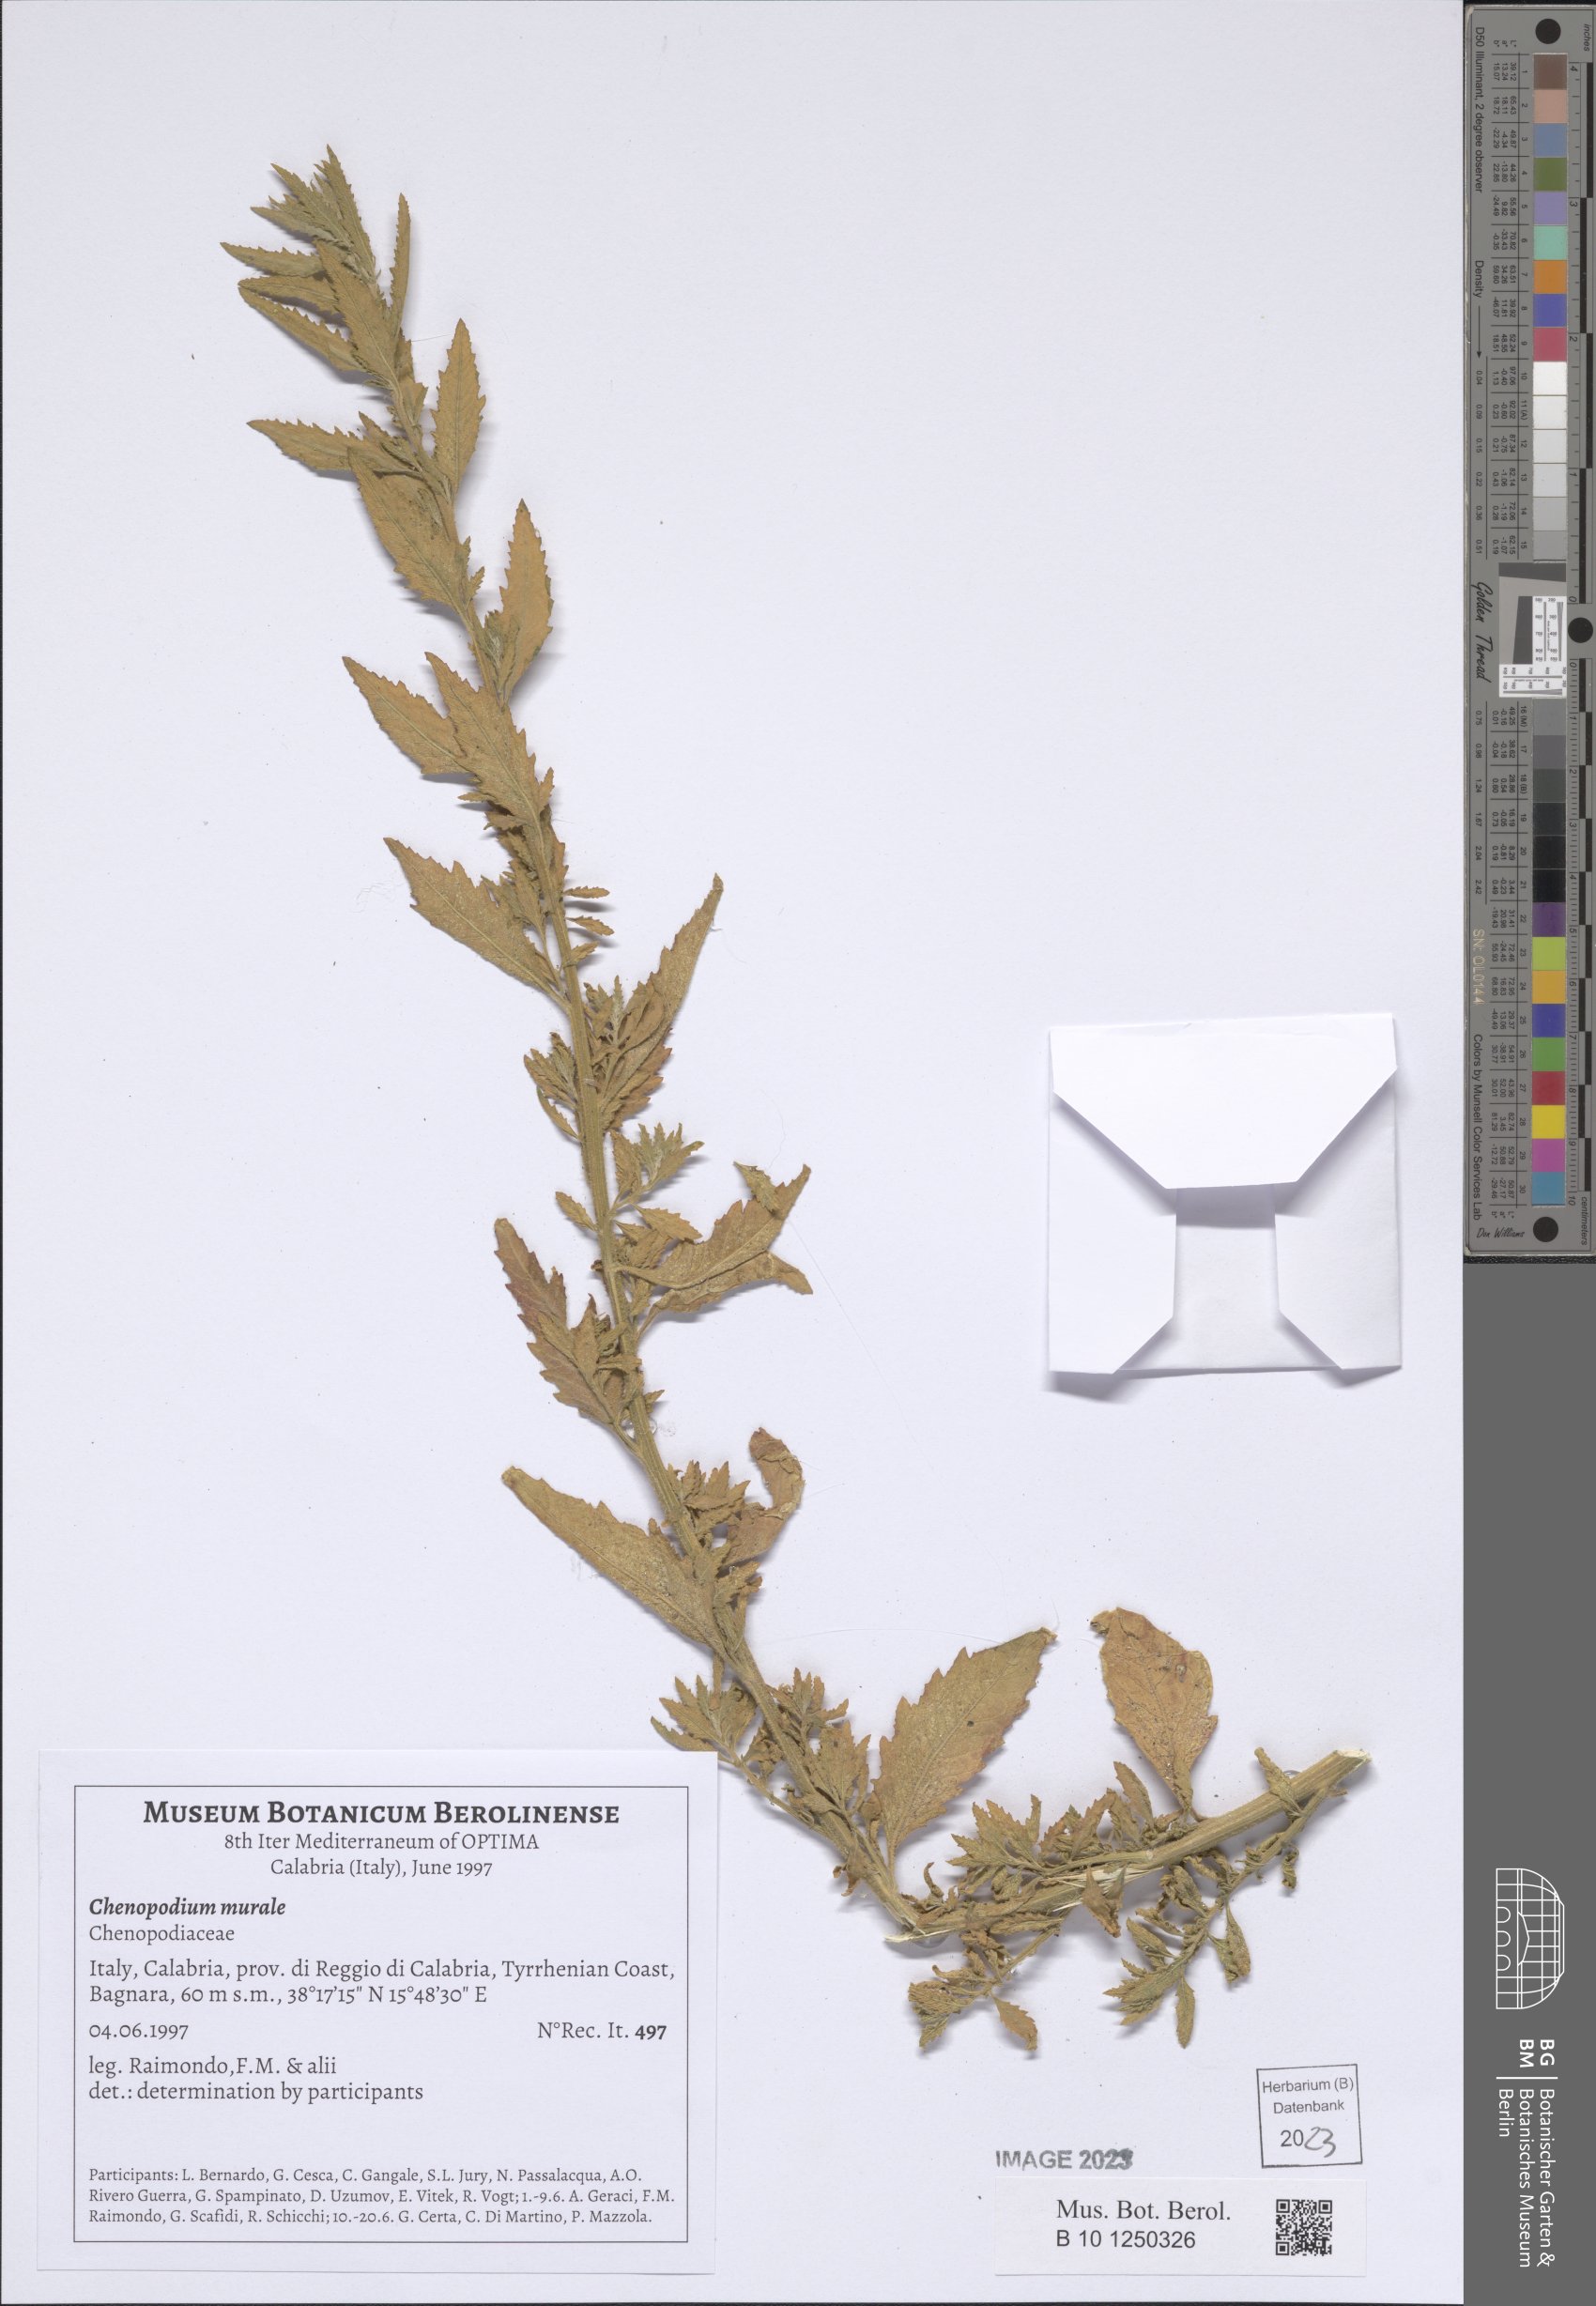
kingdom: Plantae
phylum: Tracheophyta
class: Magnoliopsida
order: Caryophyllales
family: Amaranthaceae
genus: Chenopodiastrum
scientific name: Chenopodiastrum murale
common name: Sowbane
